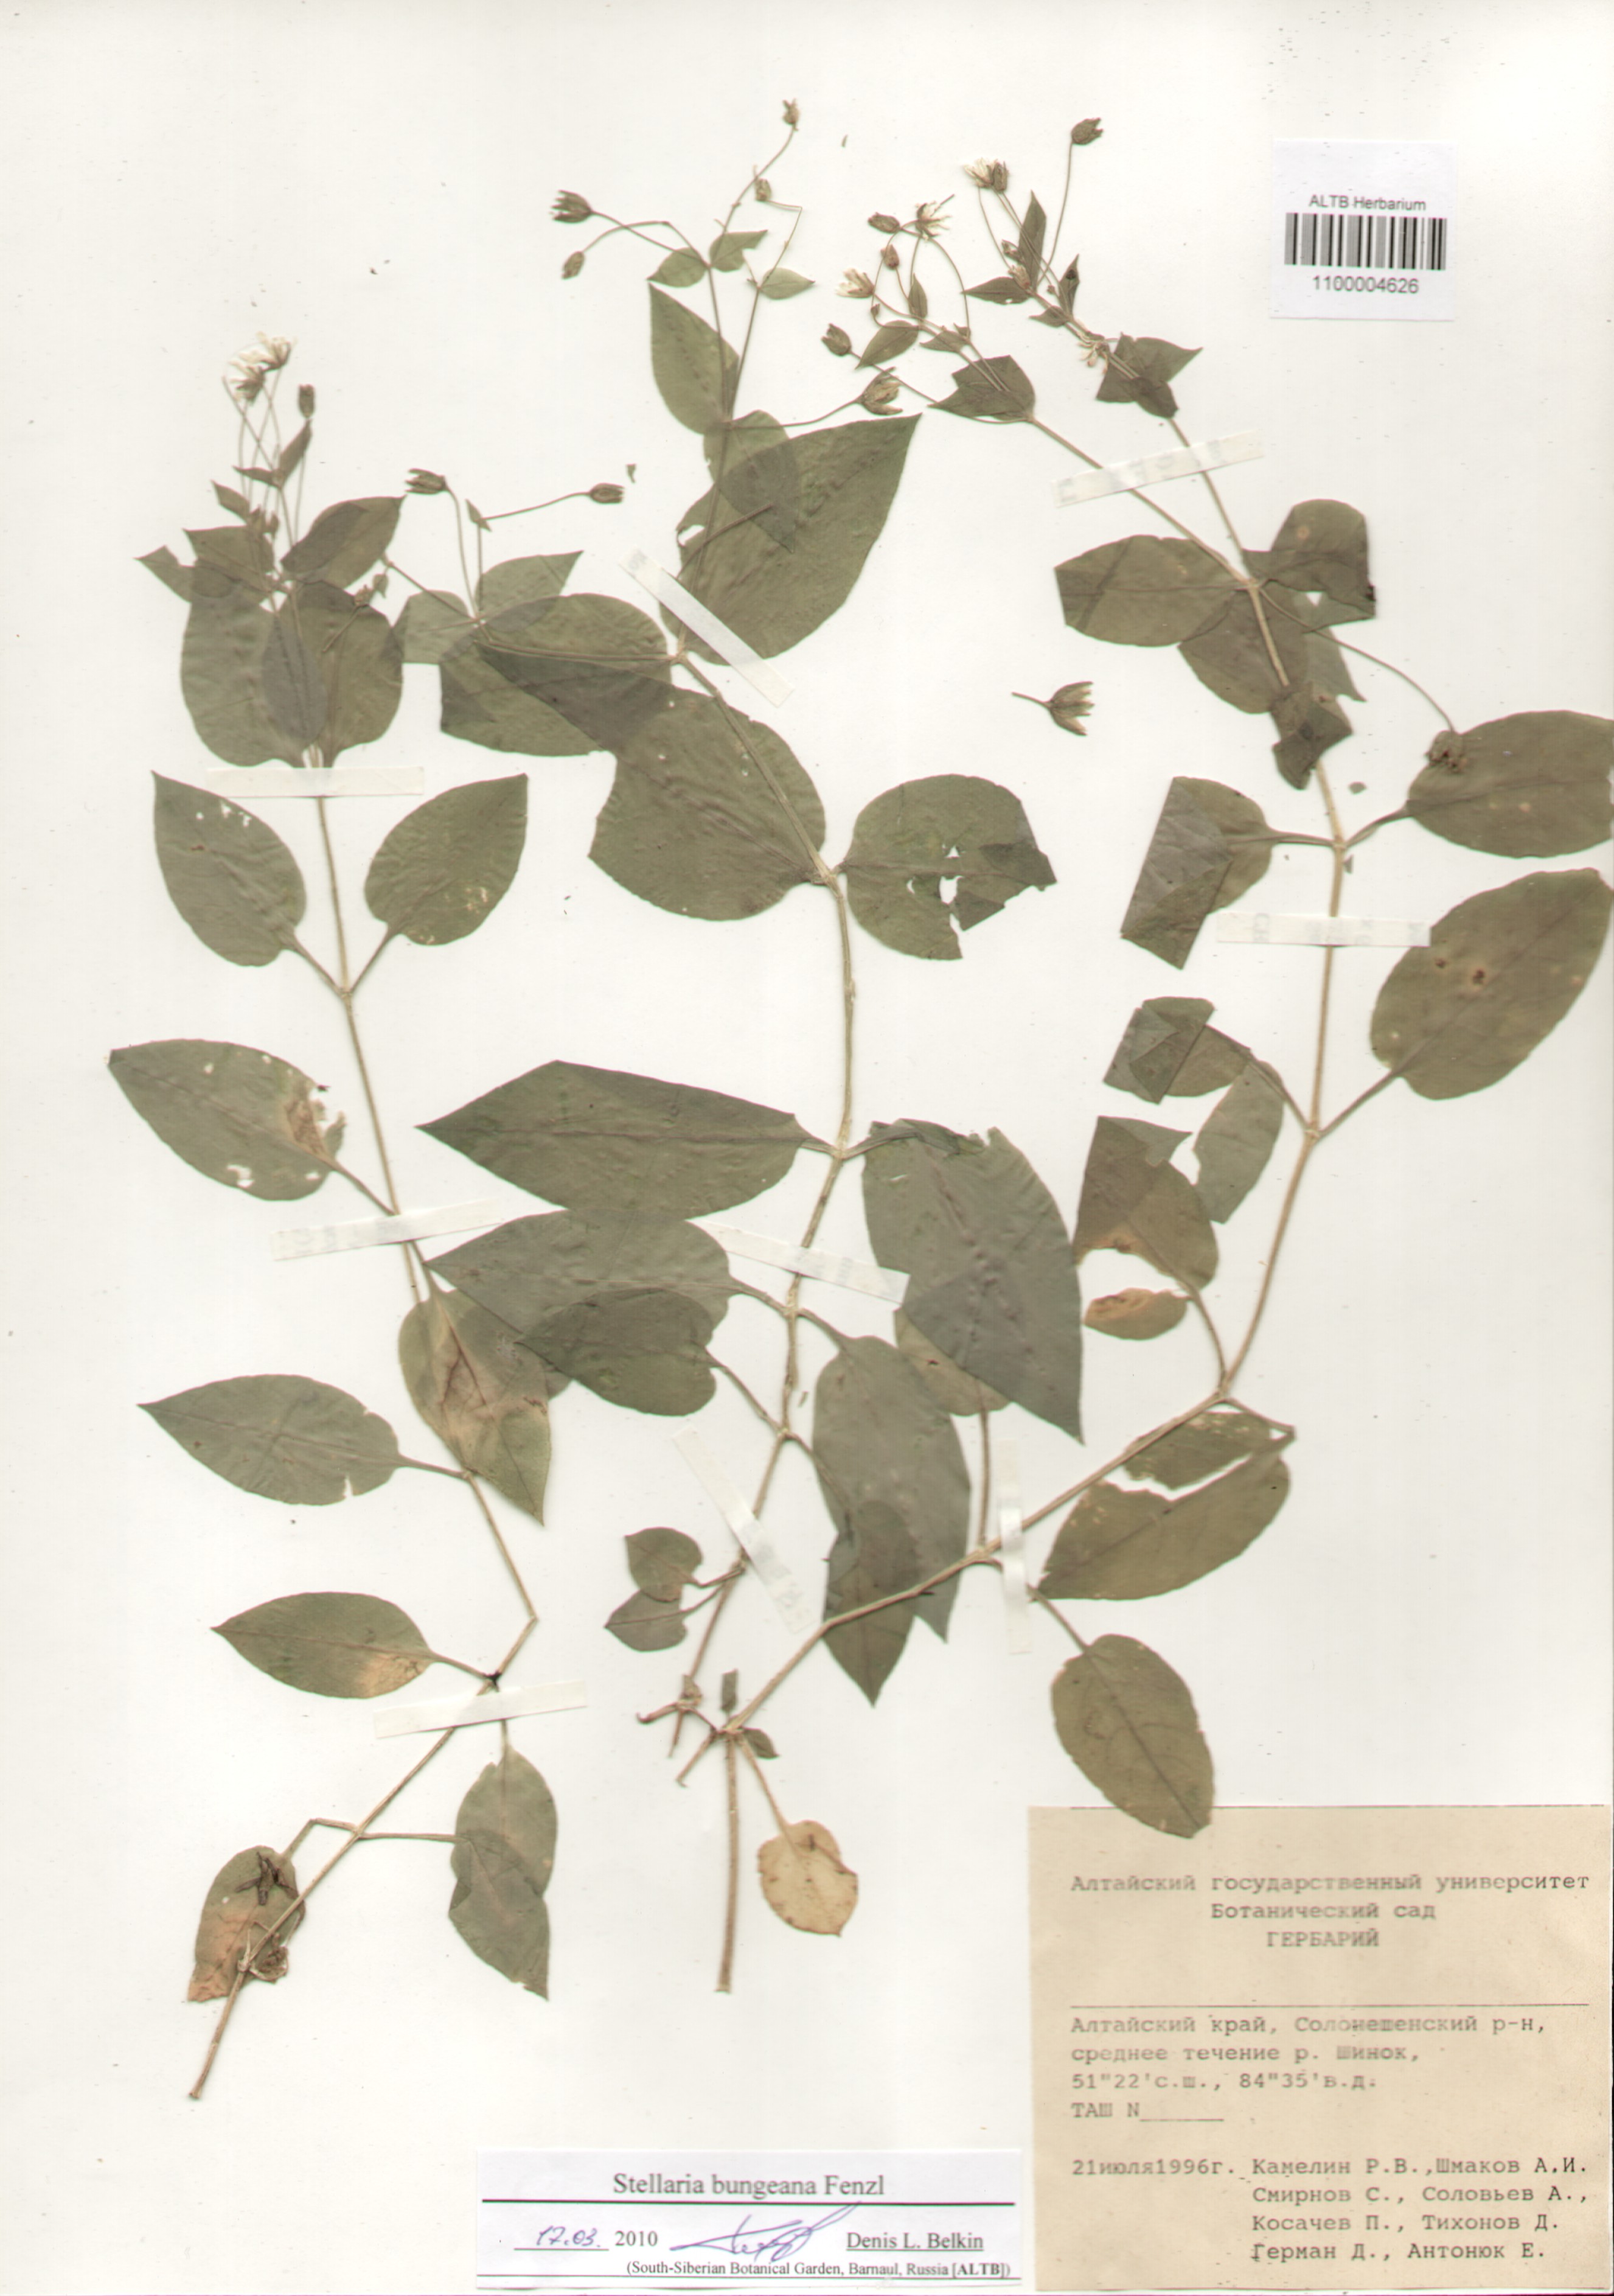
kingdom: Plantae
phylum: Tracheophyta
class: Magnoliopsida
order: Caryophyllales
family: Caryophyllaceae
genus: Stellaria
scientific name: Stellaria bungeana
